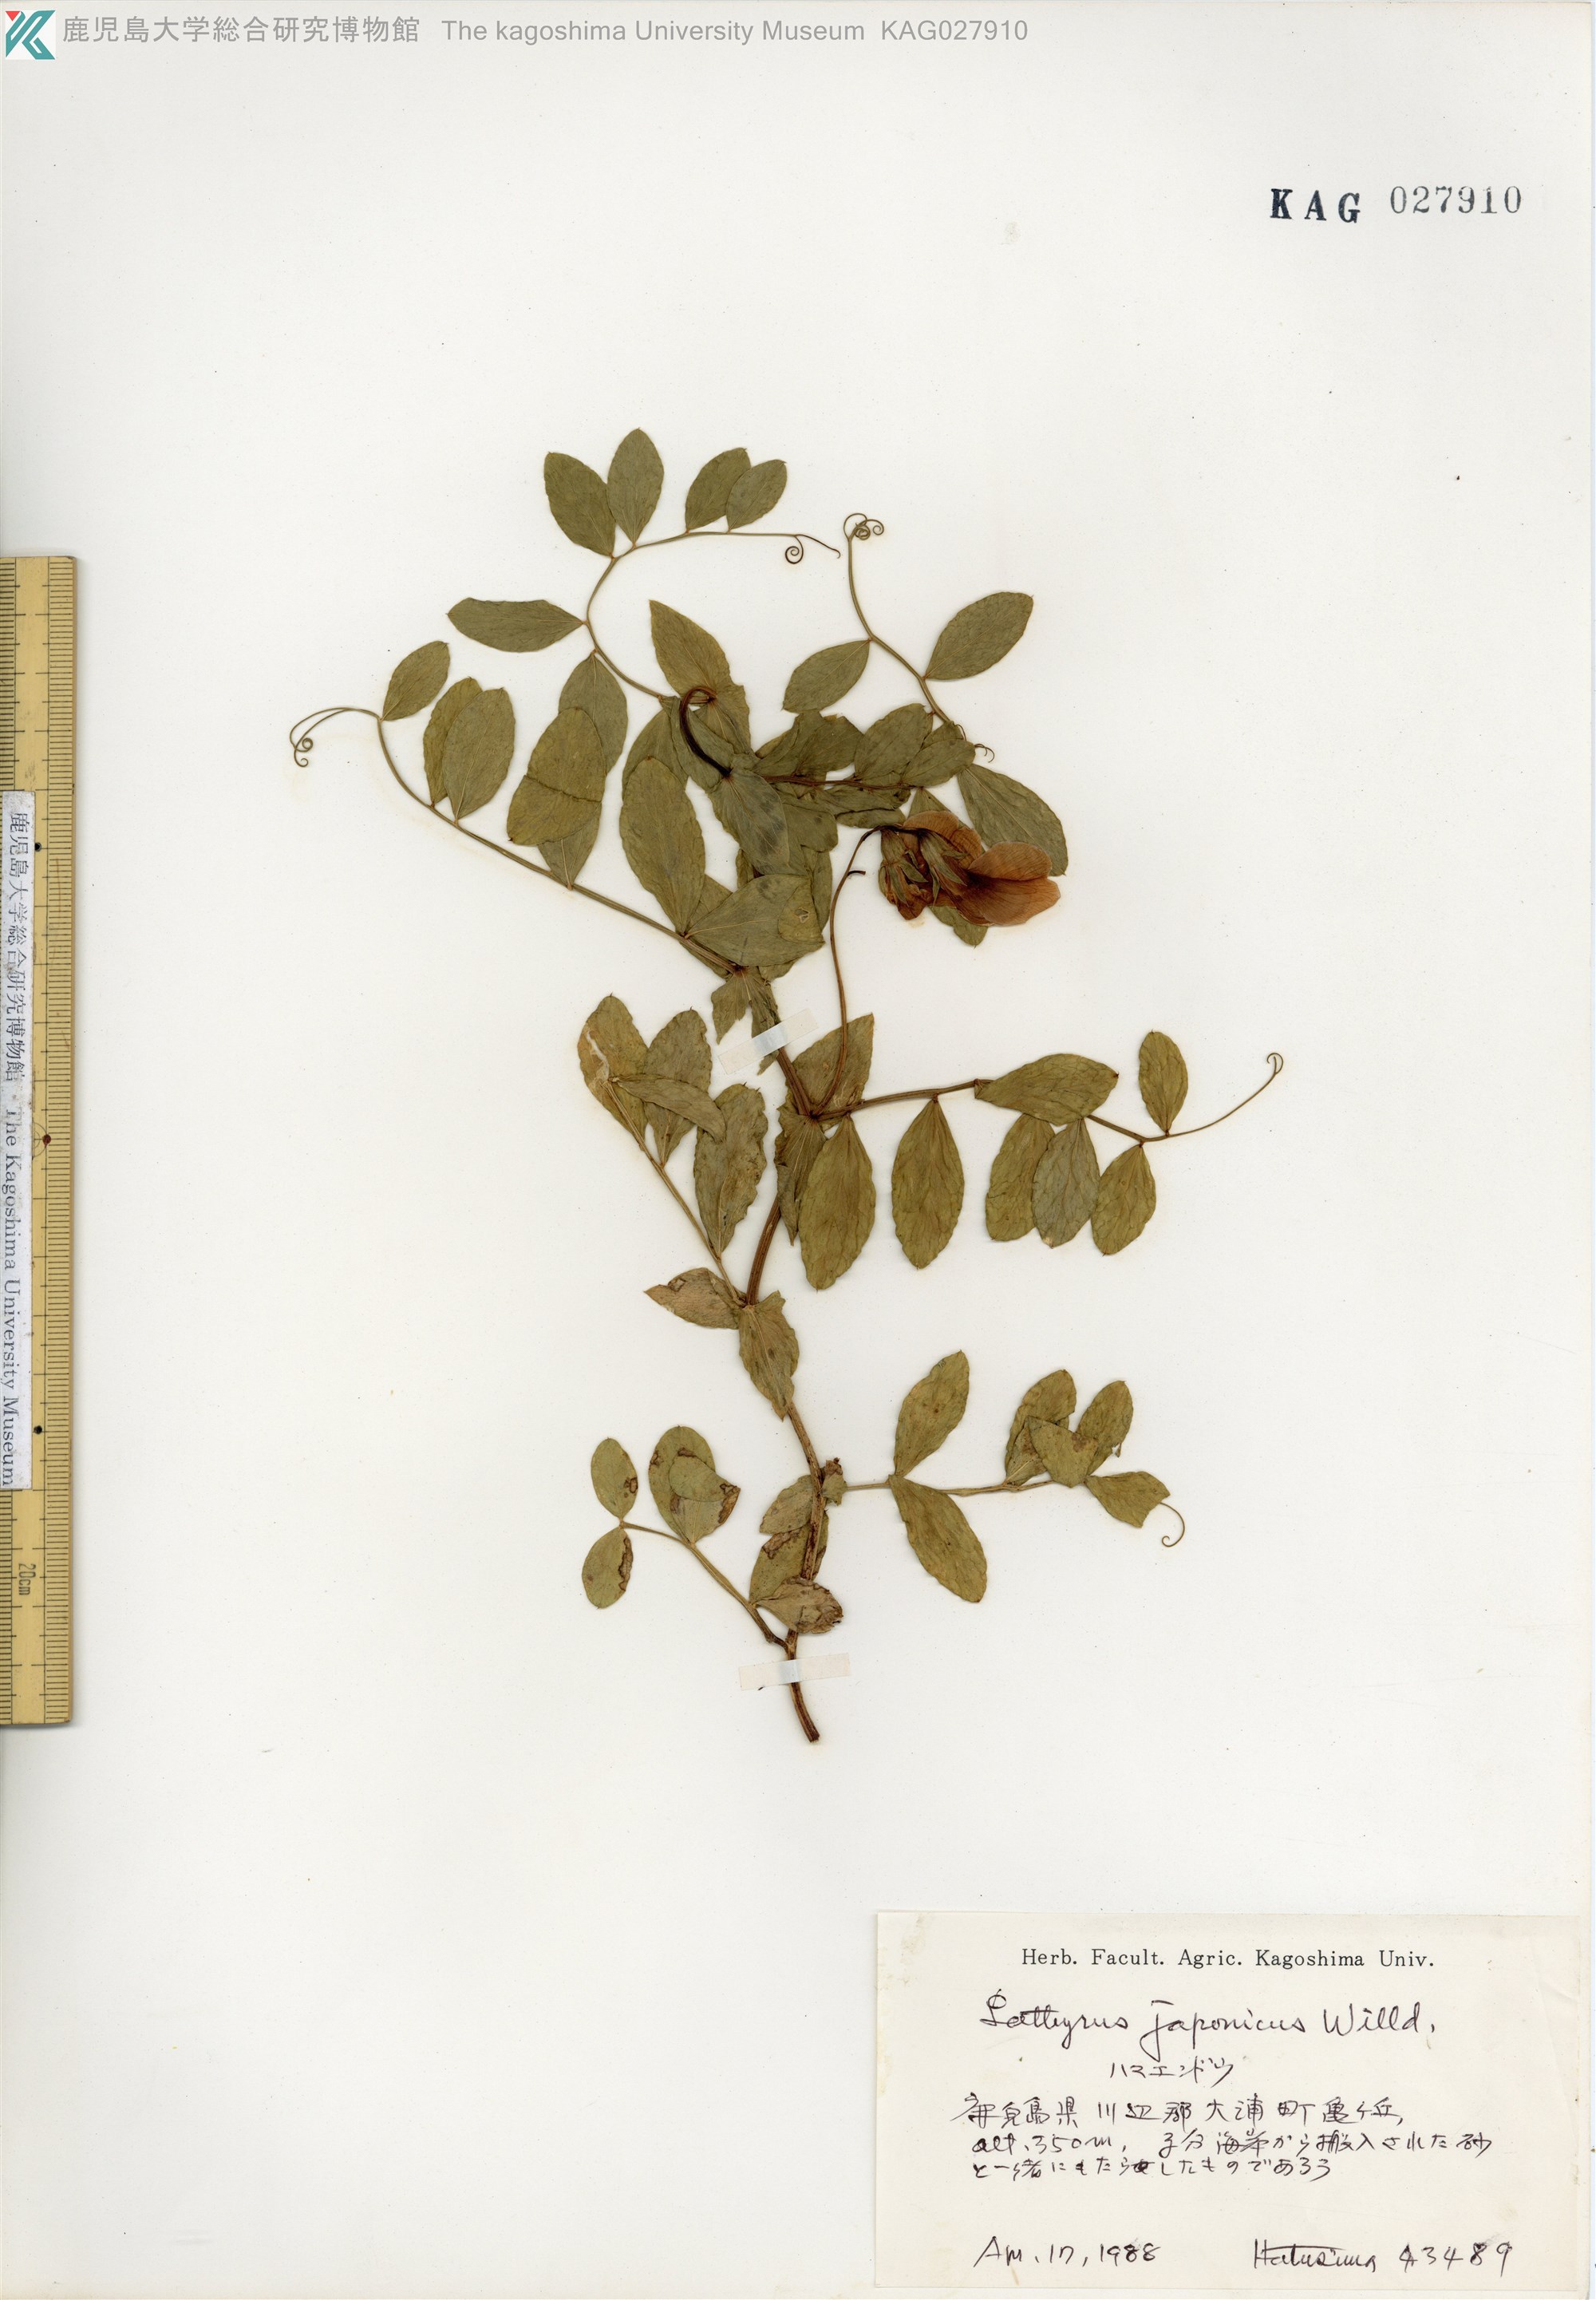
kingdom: Plantae
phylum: Tracheophyta
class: Magnoliopsida
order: Fabales
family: Fabaceae
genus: Lathyrus
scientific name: Lathyrus japonicus
